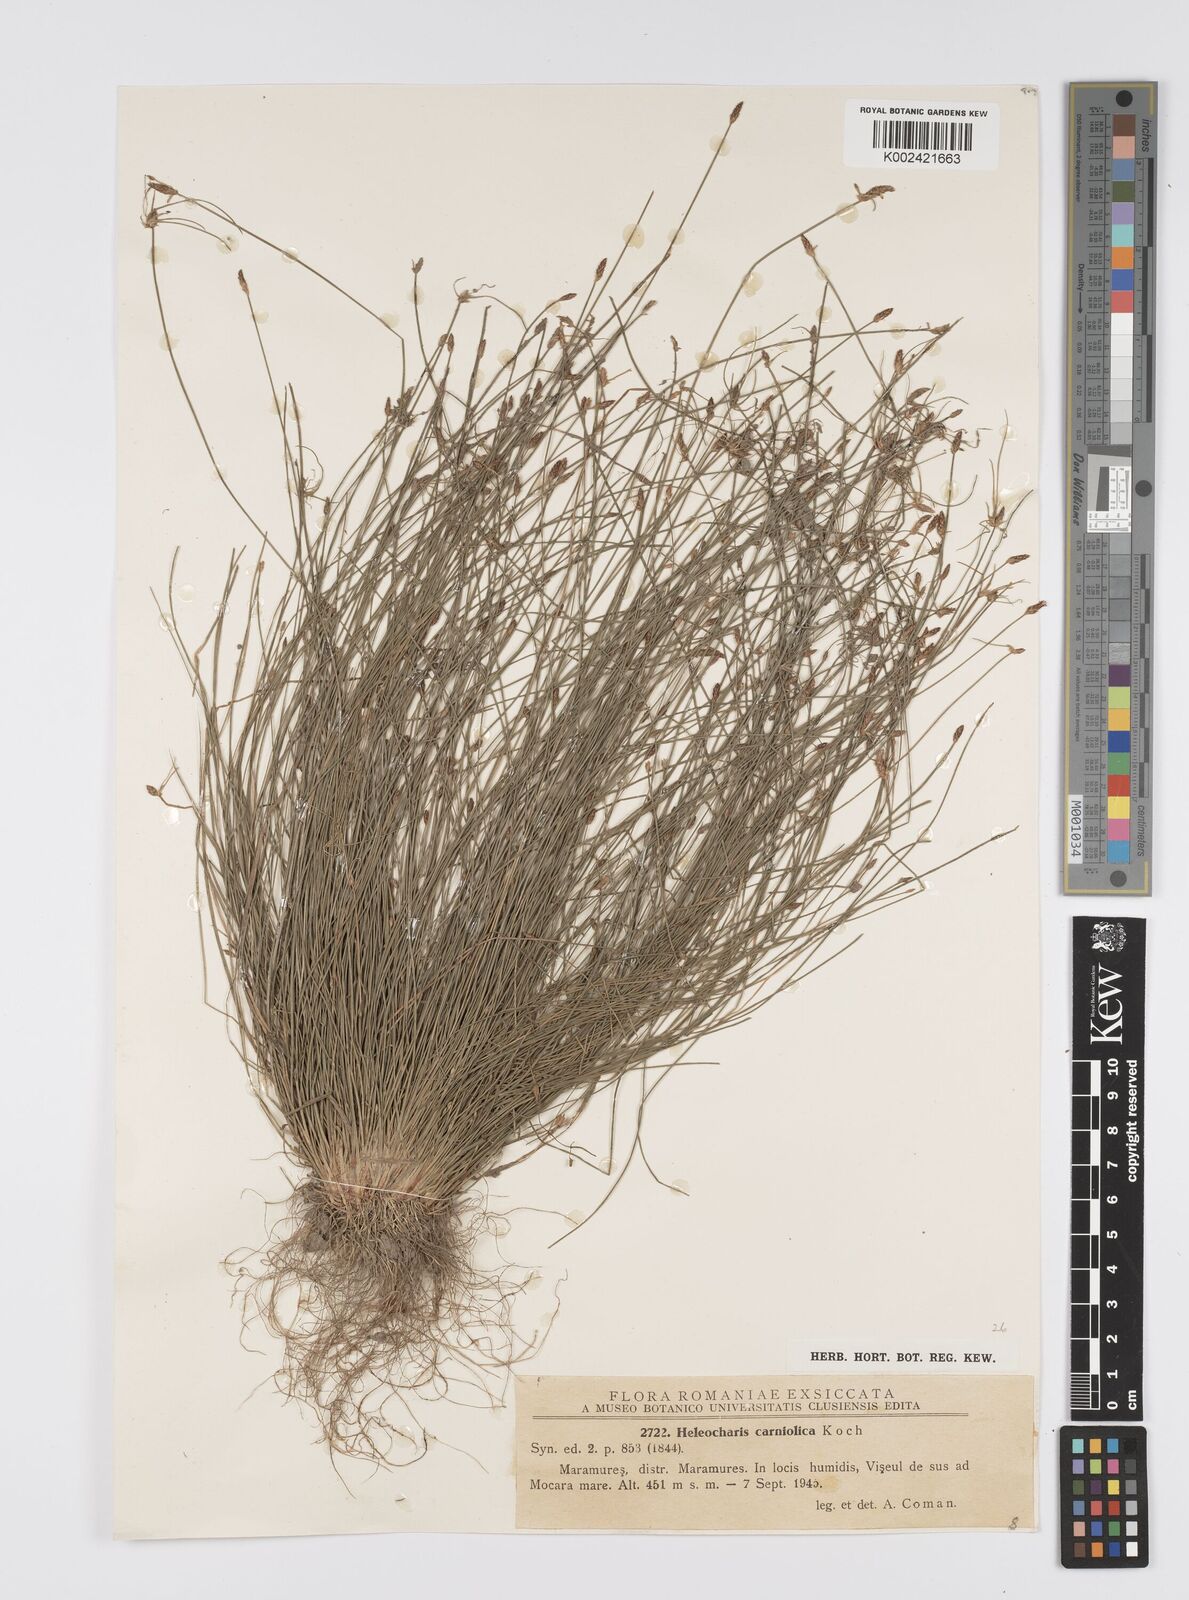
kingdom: Plantae
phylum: Tracheophyta
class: Liliopsida
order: Poales
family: Cyperaceae
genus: Eleocharis
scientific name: Eleocharis carniolica
